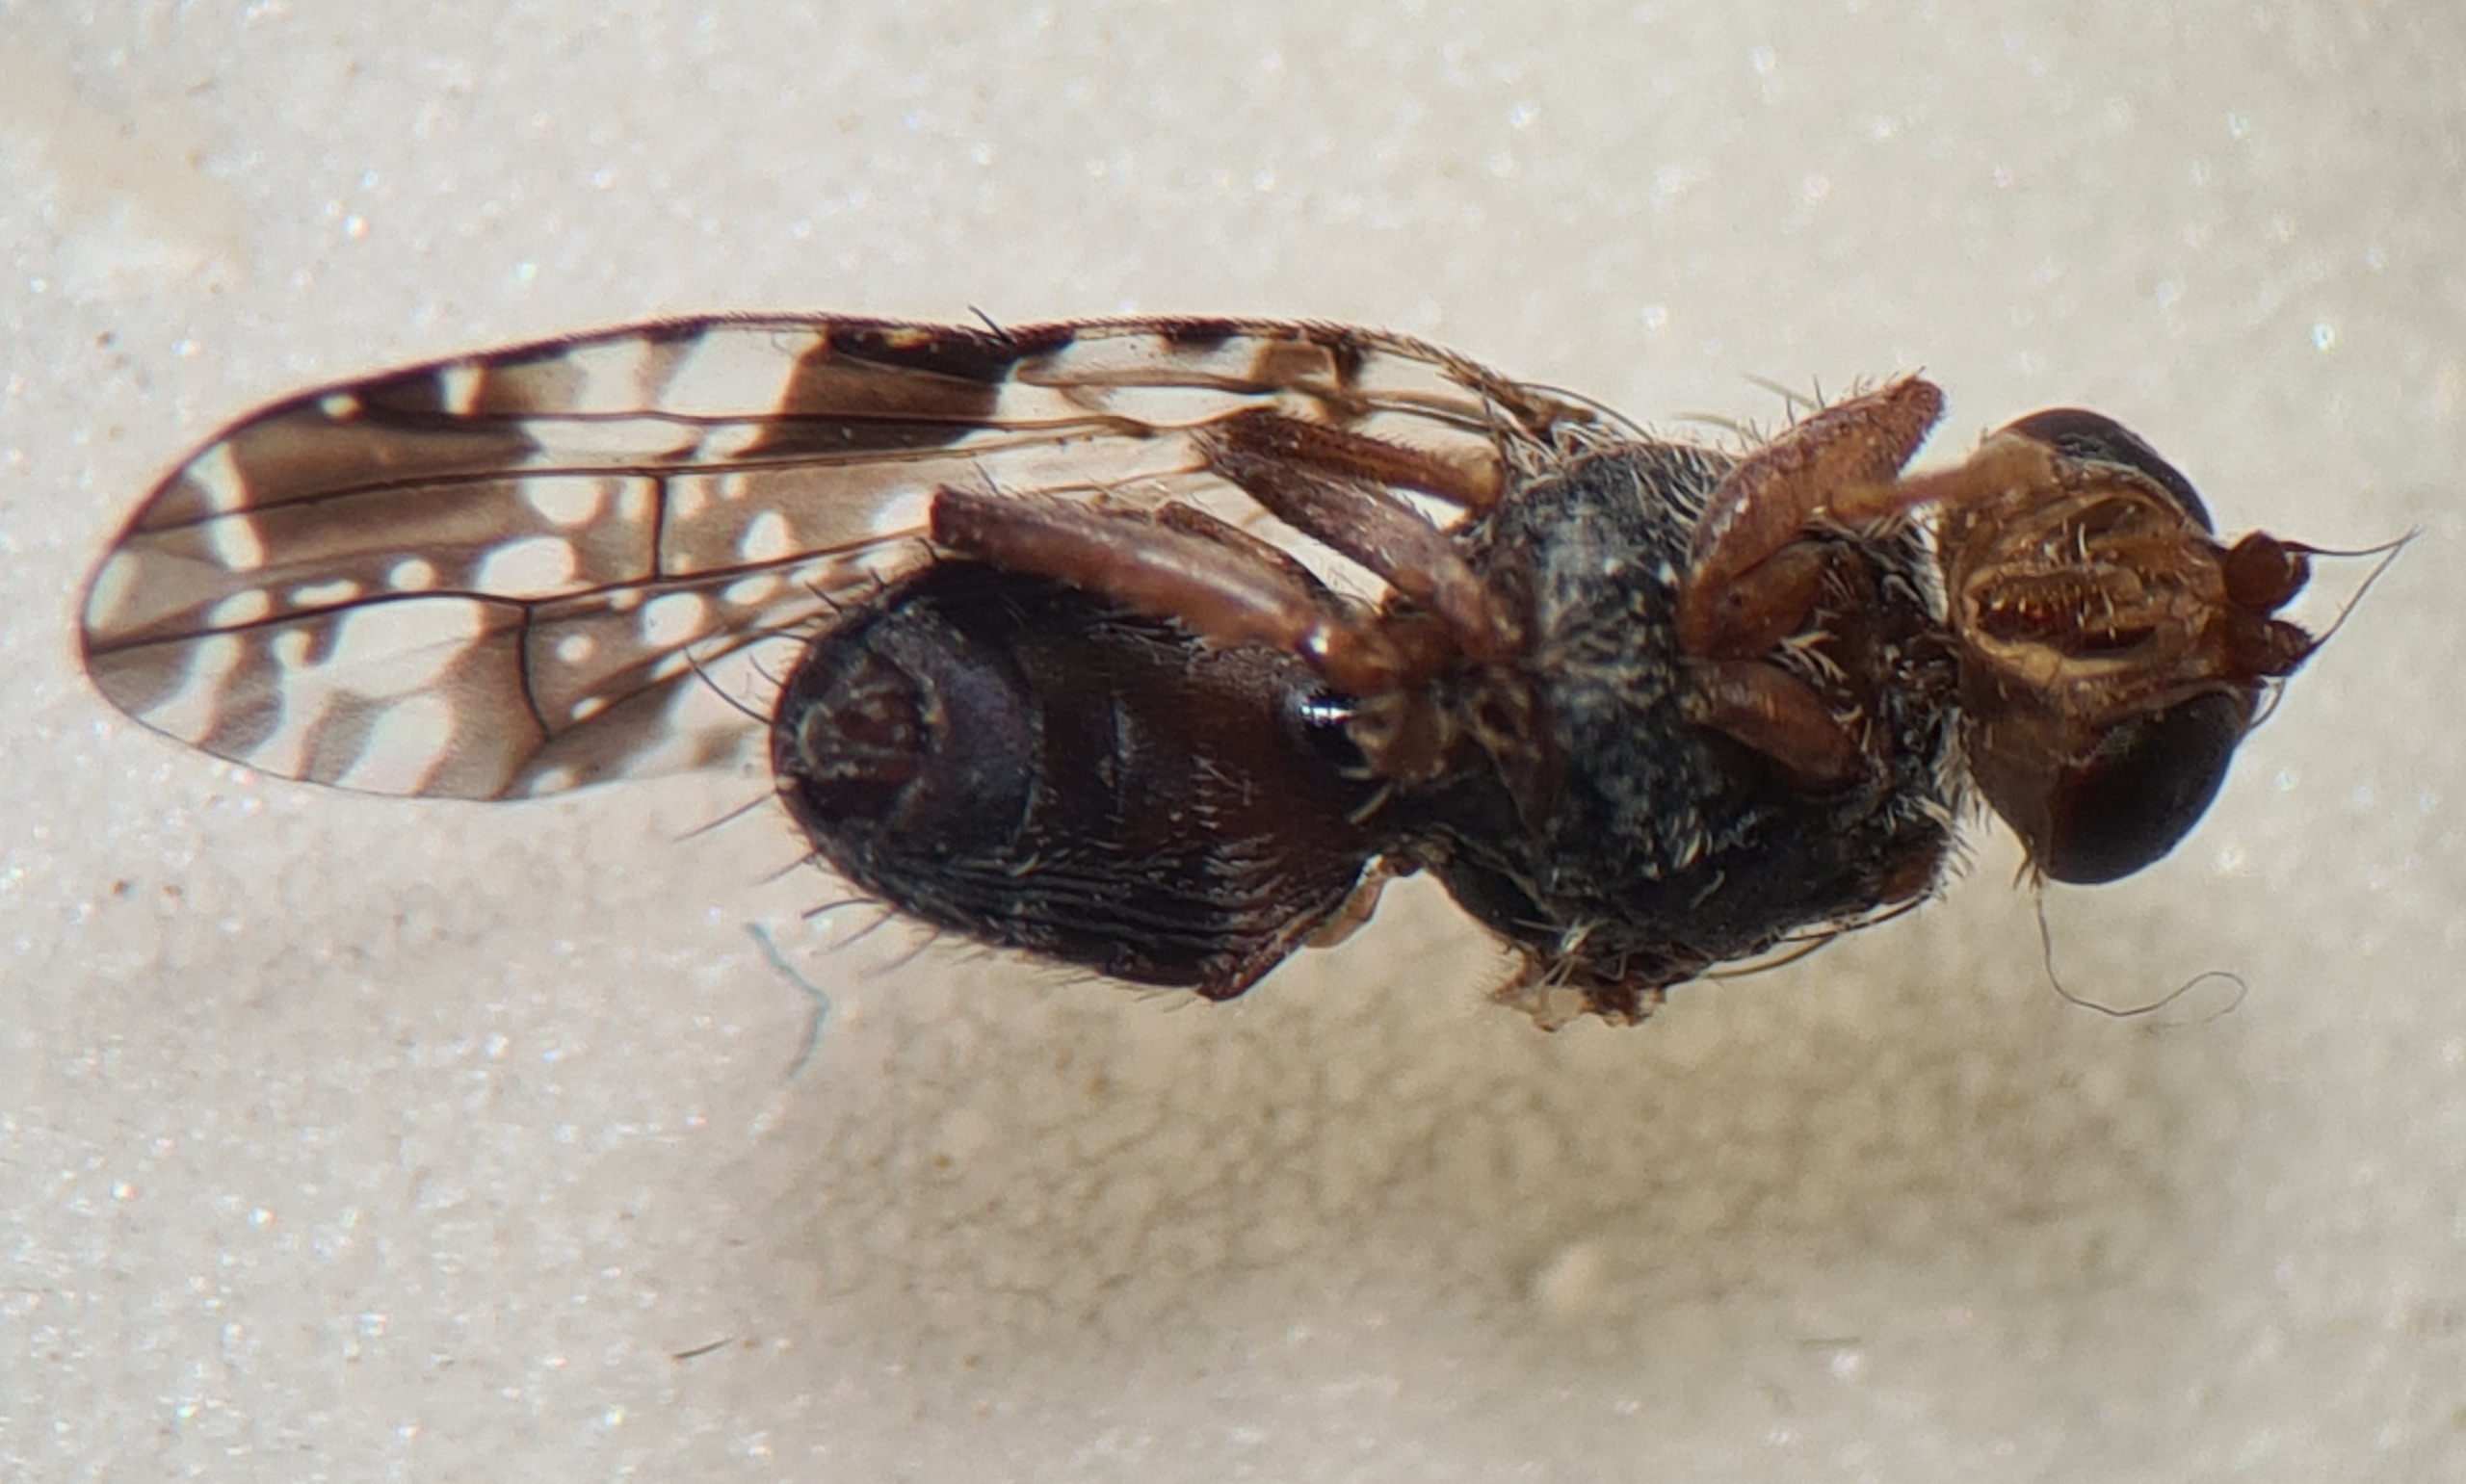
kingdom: Animalia
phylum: Arthropoda
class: Insecta
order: Diptera
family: Tephritidae
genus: Tephritis
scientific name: Tephritis vespertina
